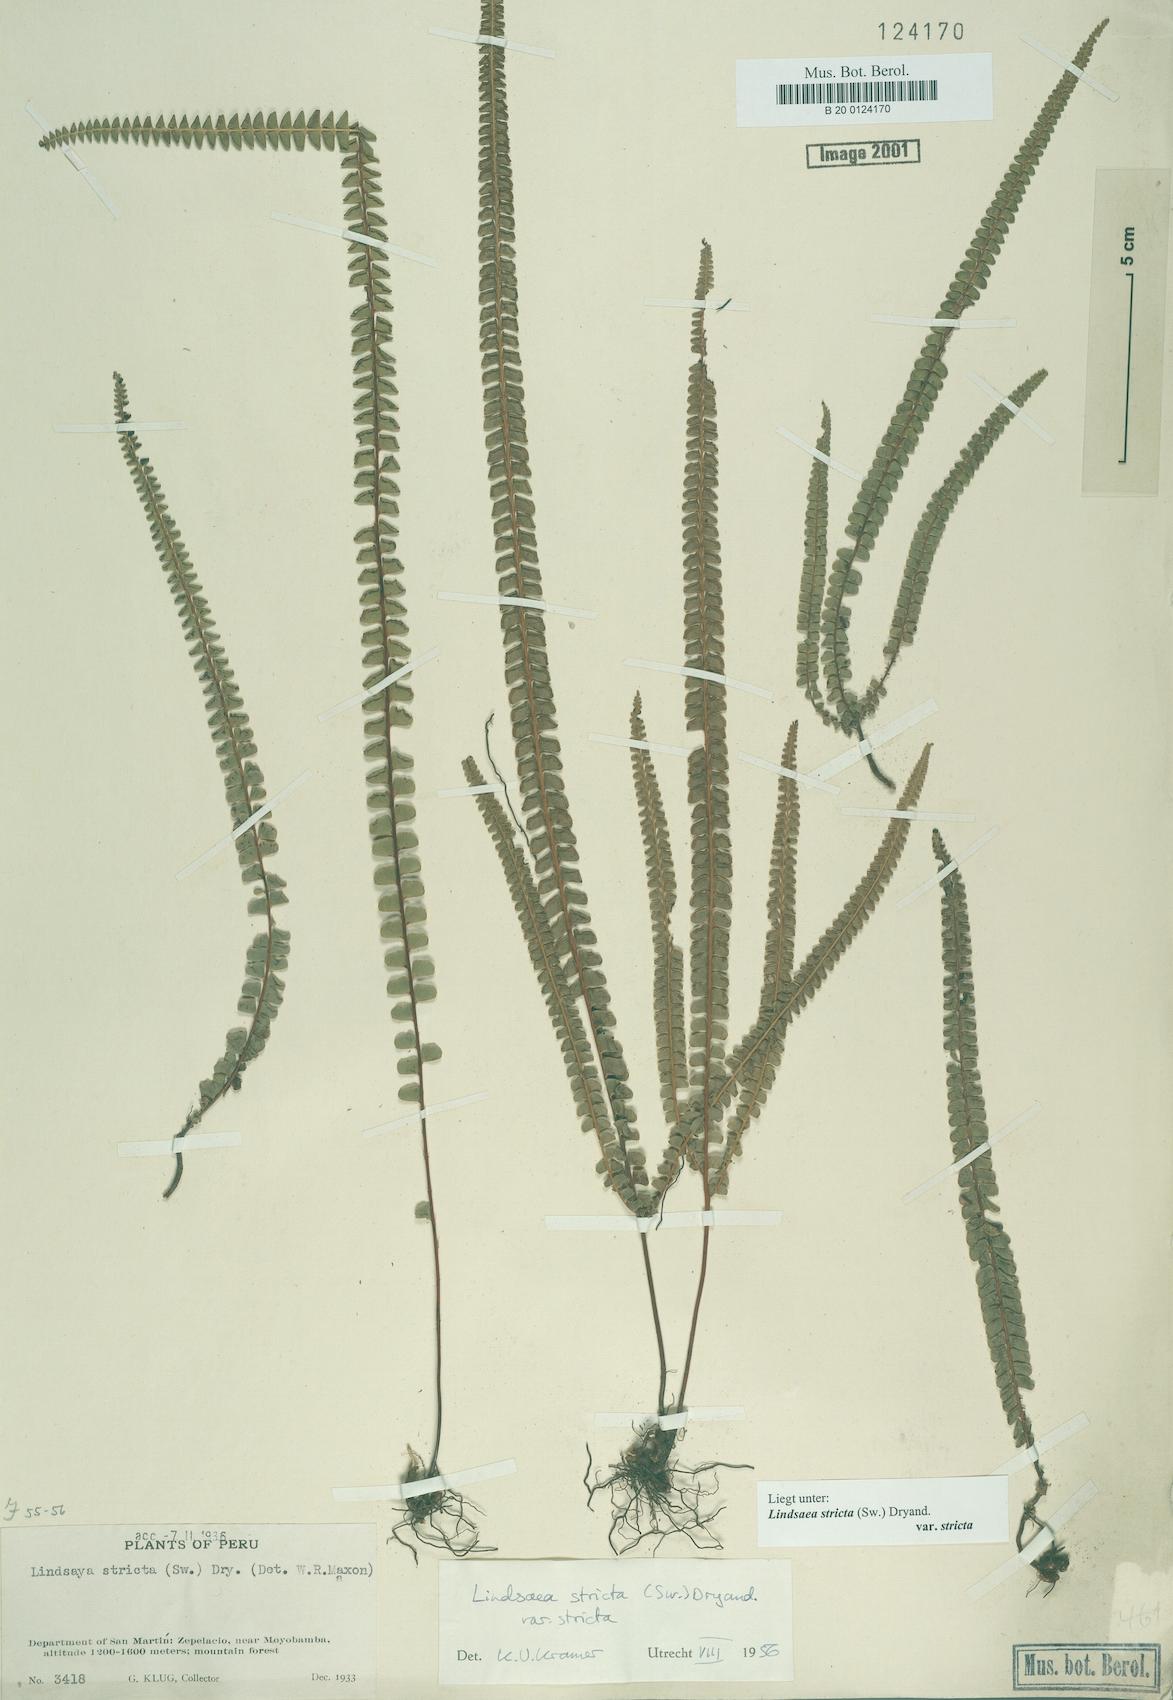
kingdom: Plantae
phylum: Tracheophyta
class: Polypodiopsida
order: Polypodiales
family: Lindsaeaceae
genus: Lindsaea
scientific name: Lindsaea stricta
